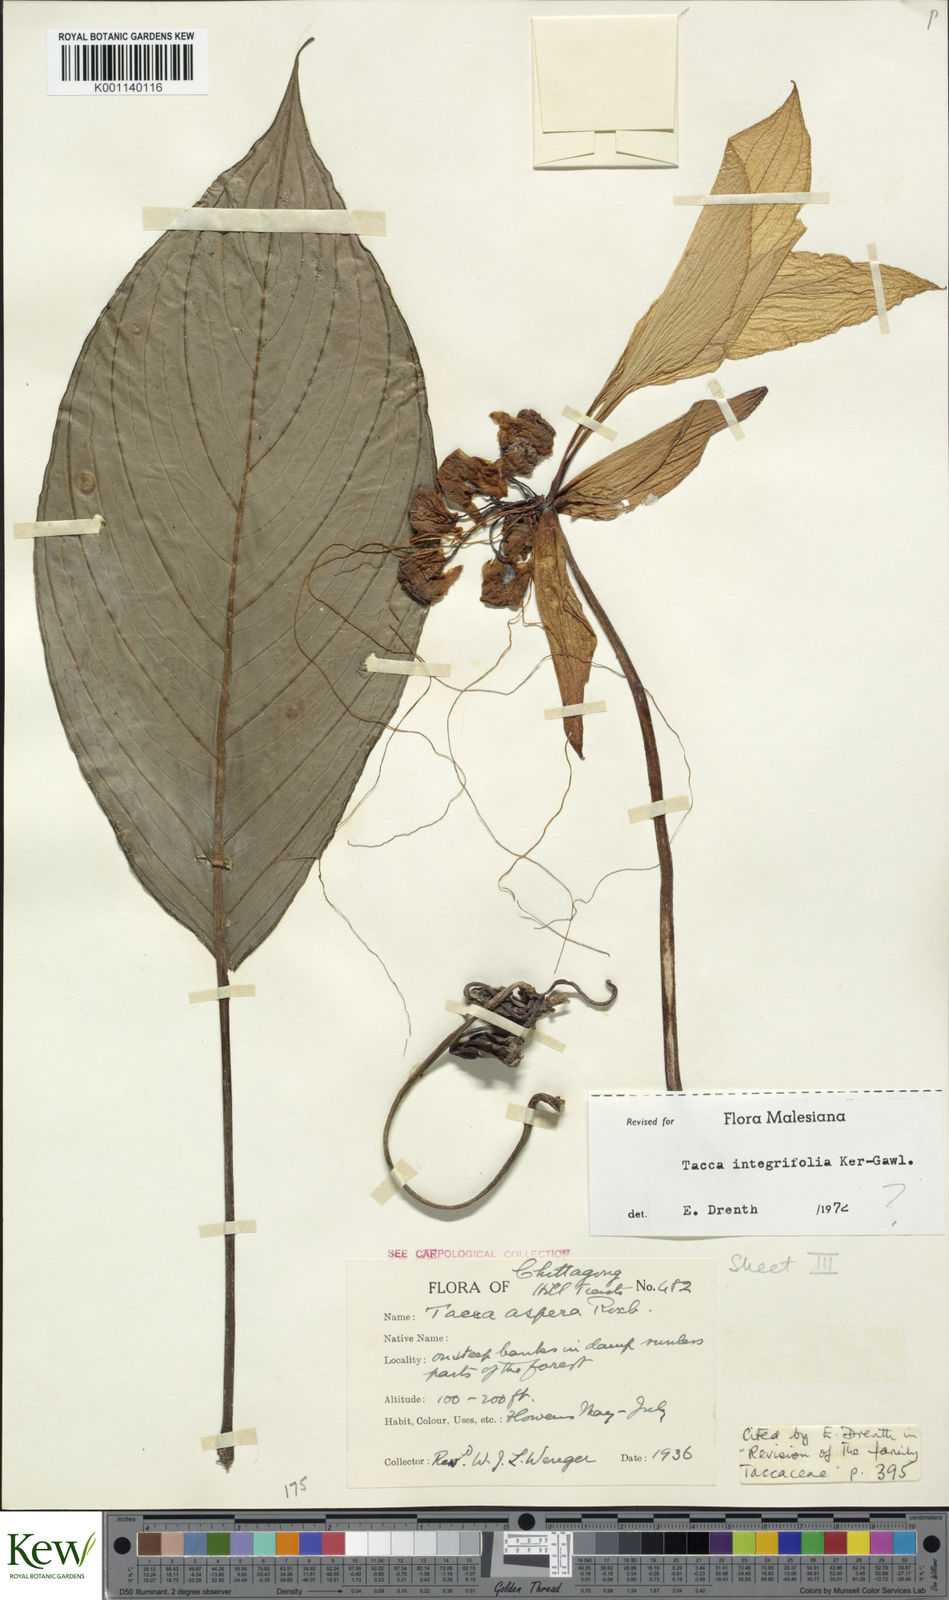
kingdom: Plantae
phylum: Tracheophyta
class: Liliopsida
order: Dioscoreales
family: Dioscoreaceae
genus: Tacca
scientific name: Tacca
